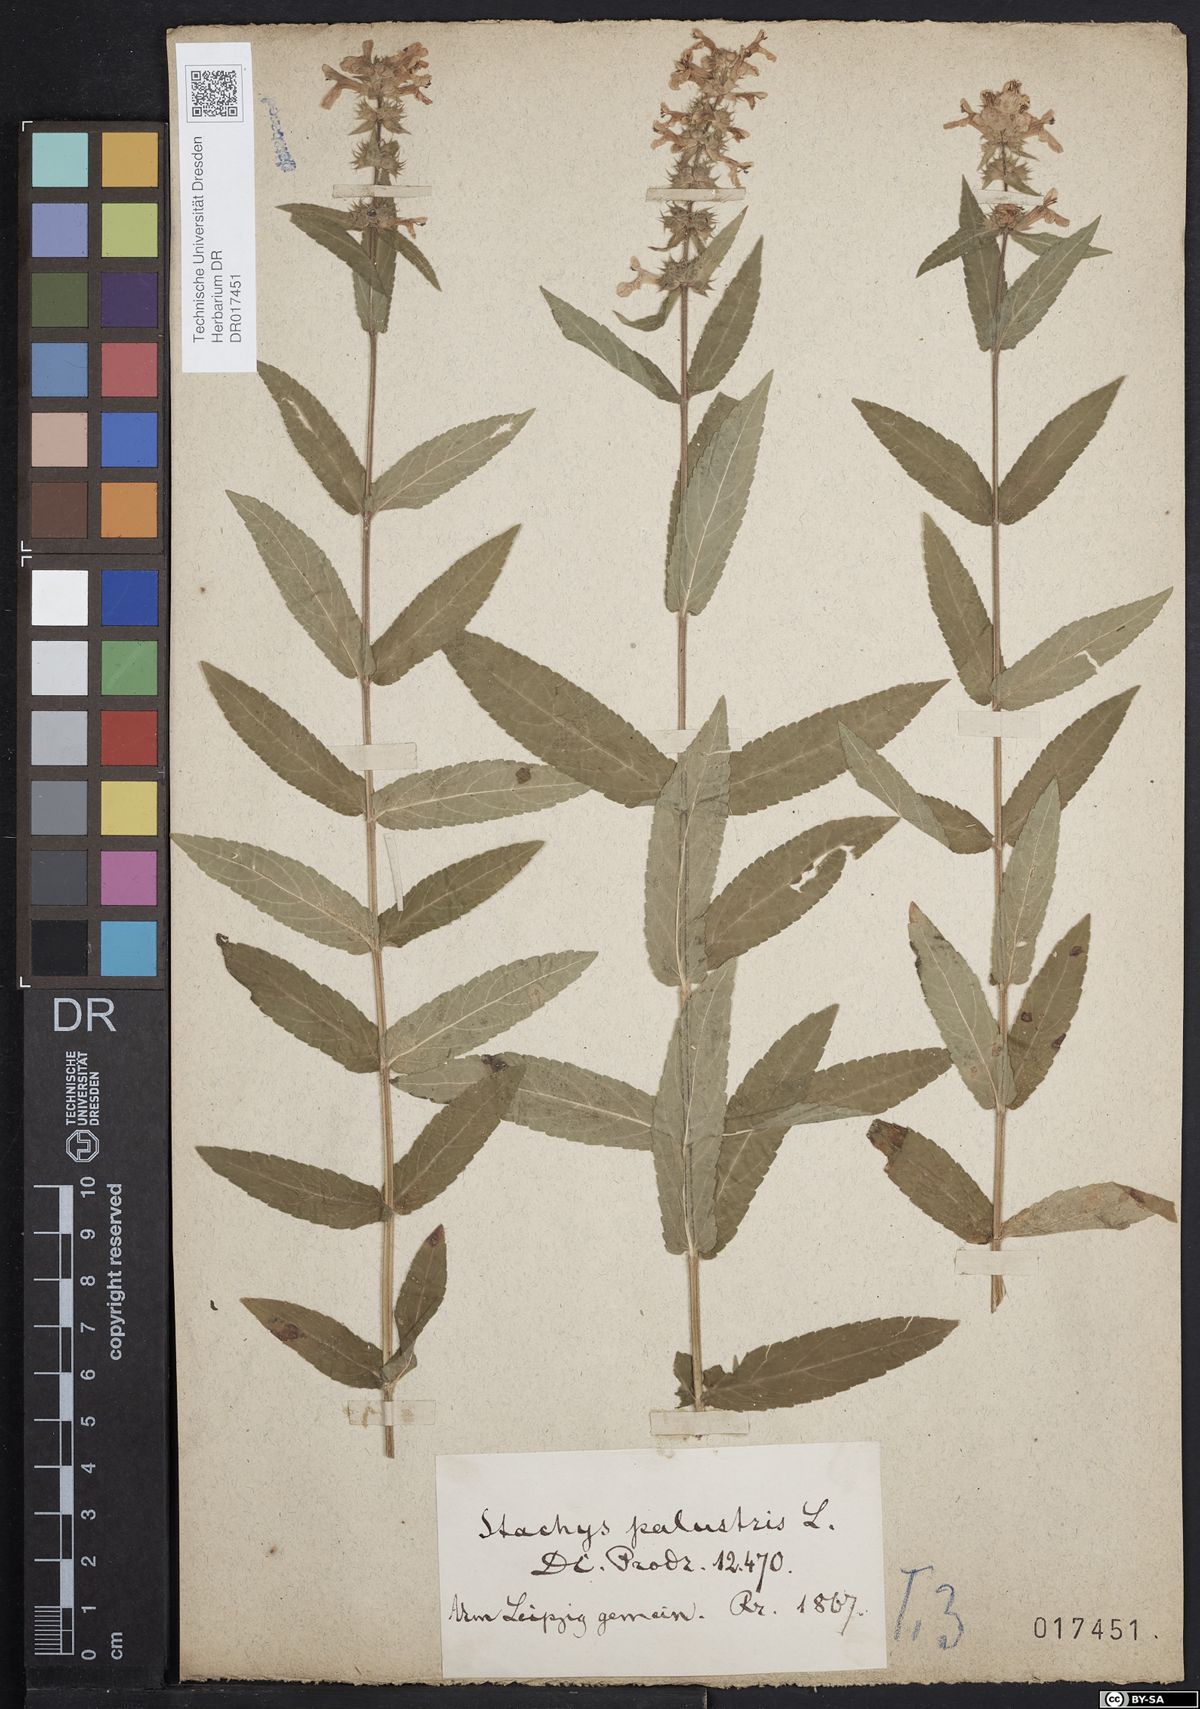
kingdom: Plantae
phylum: Tracheophyta
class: Magnoliopsida
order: Lamiales
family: Lamiaceae
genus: Stachys
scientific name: Stachys palustris
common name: Marsh woundwort
